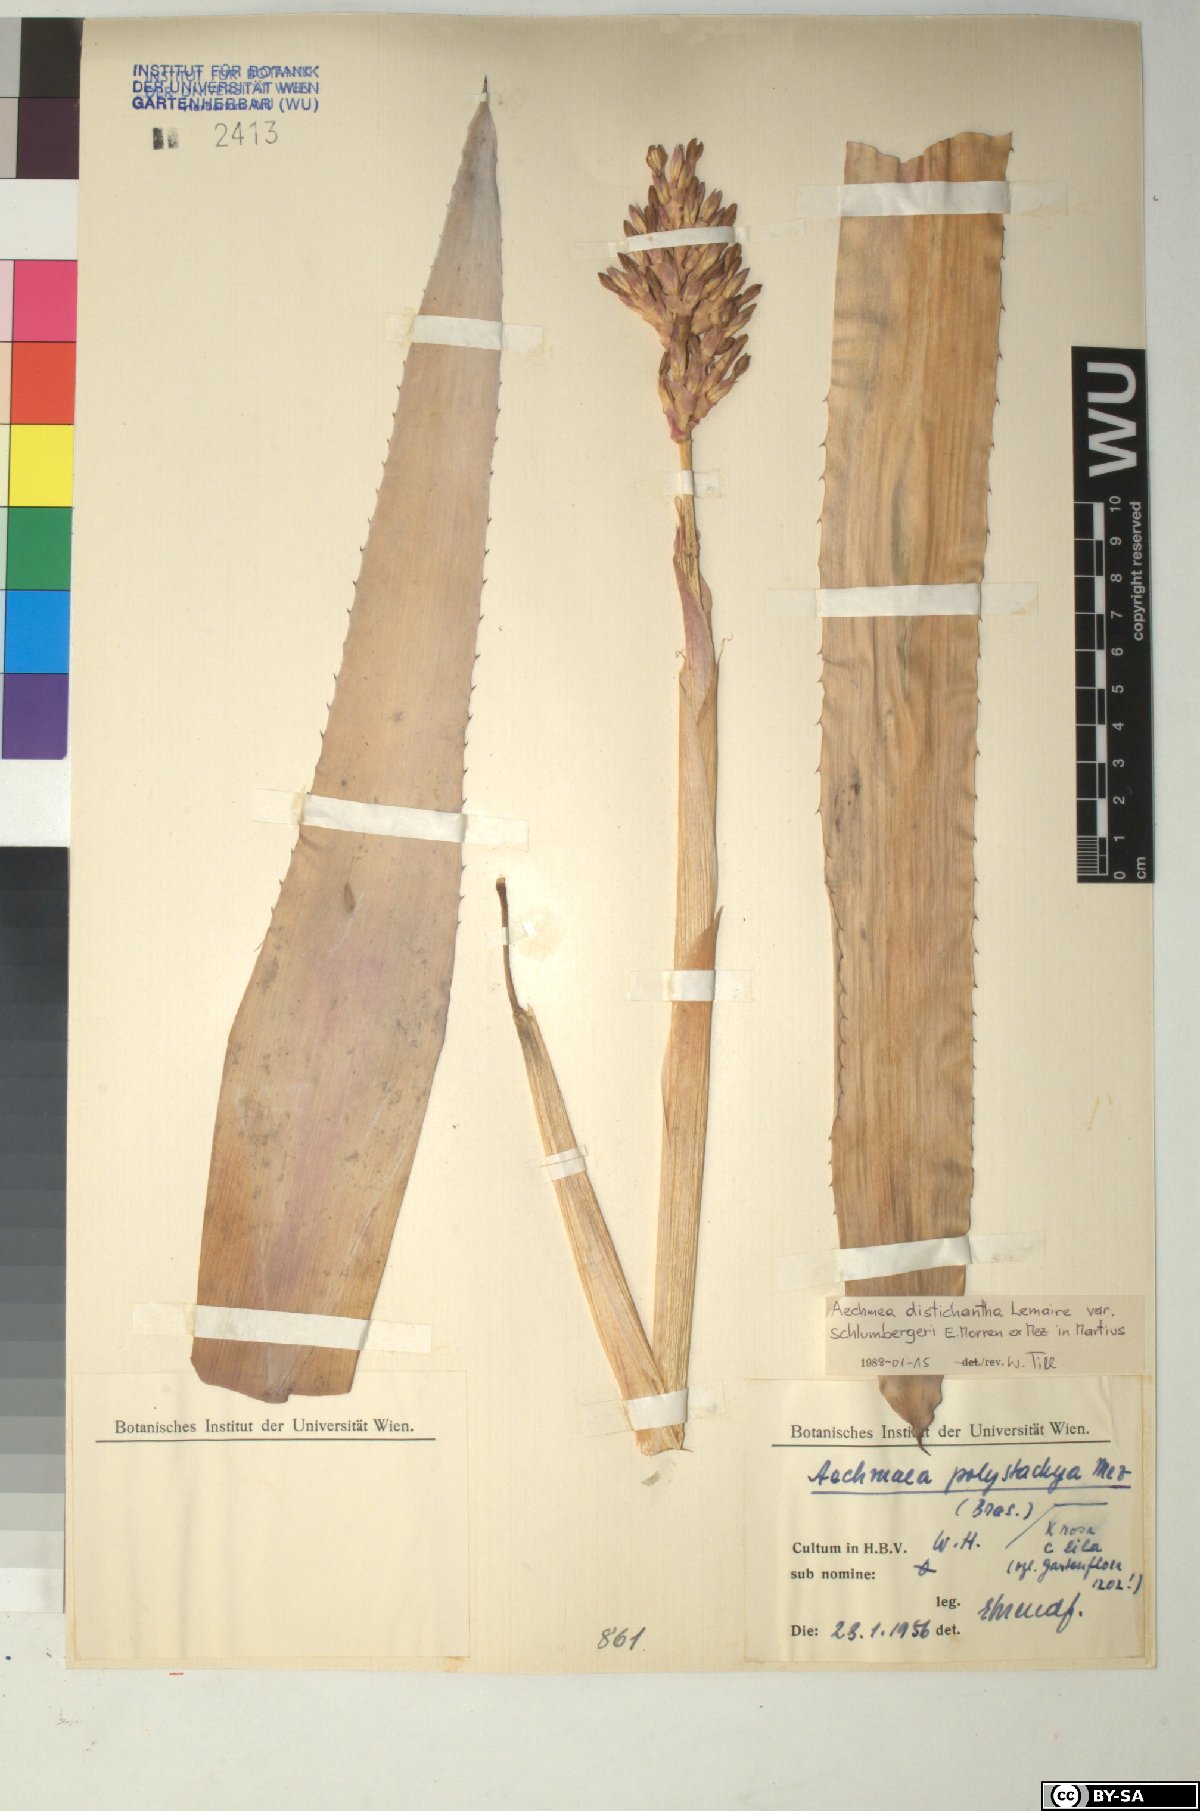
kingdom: Plantae
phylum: Tracheophyta
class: Liliopsida
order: Poales
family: Bromeliaceae
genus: Aechmea
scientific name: Aechmea distichantha
